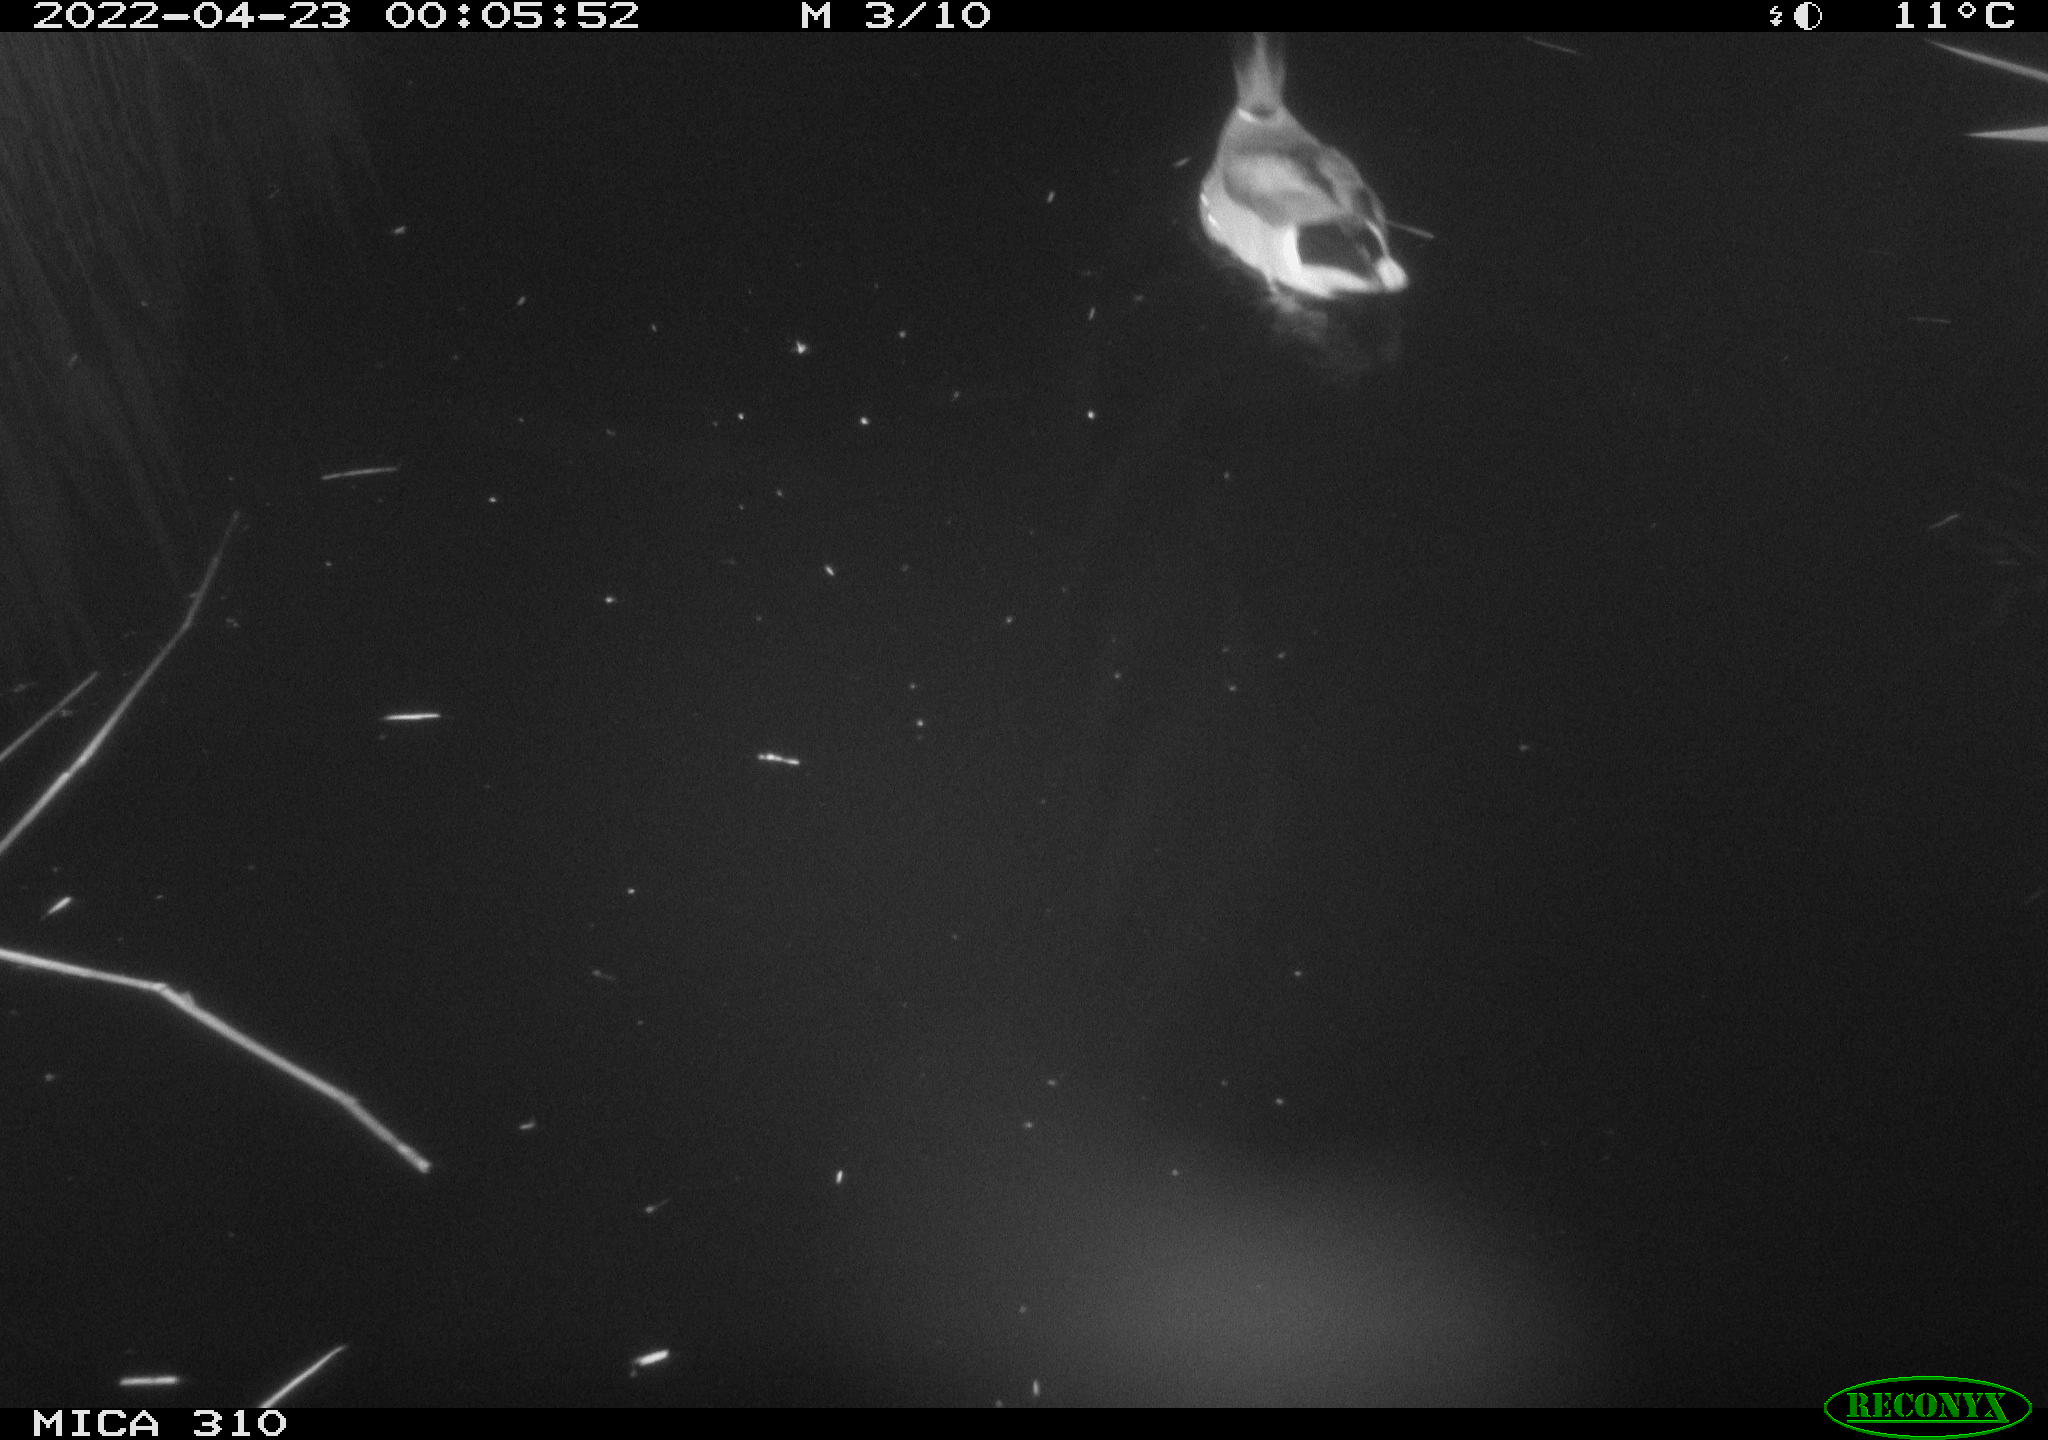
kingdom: Animalia
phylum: Chordata
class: Aves
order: Anseriformes
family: Anatidae
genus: Anas
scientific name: Anas platyrhynchos
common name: Mallard
